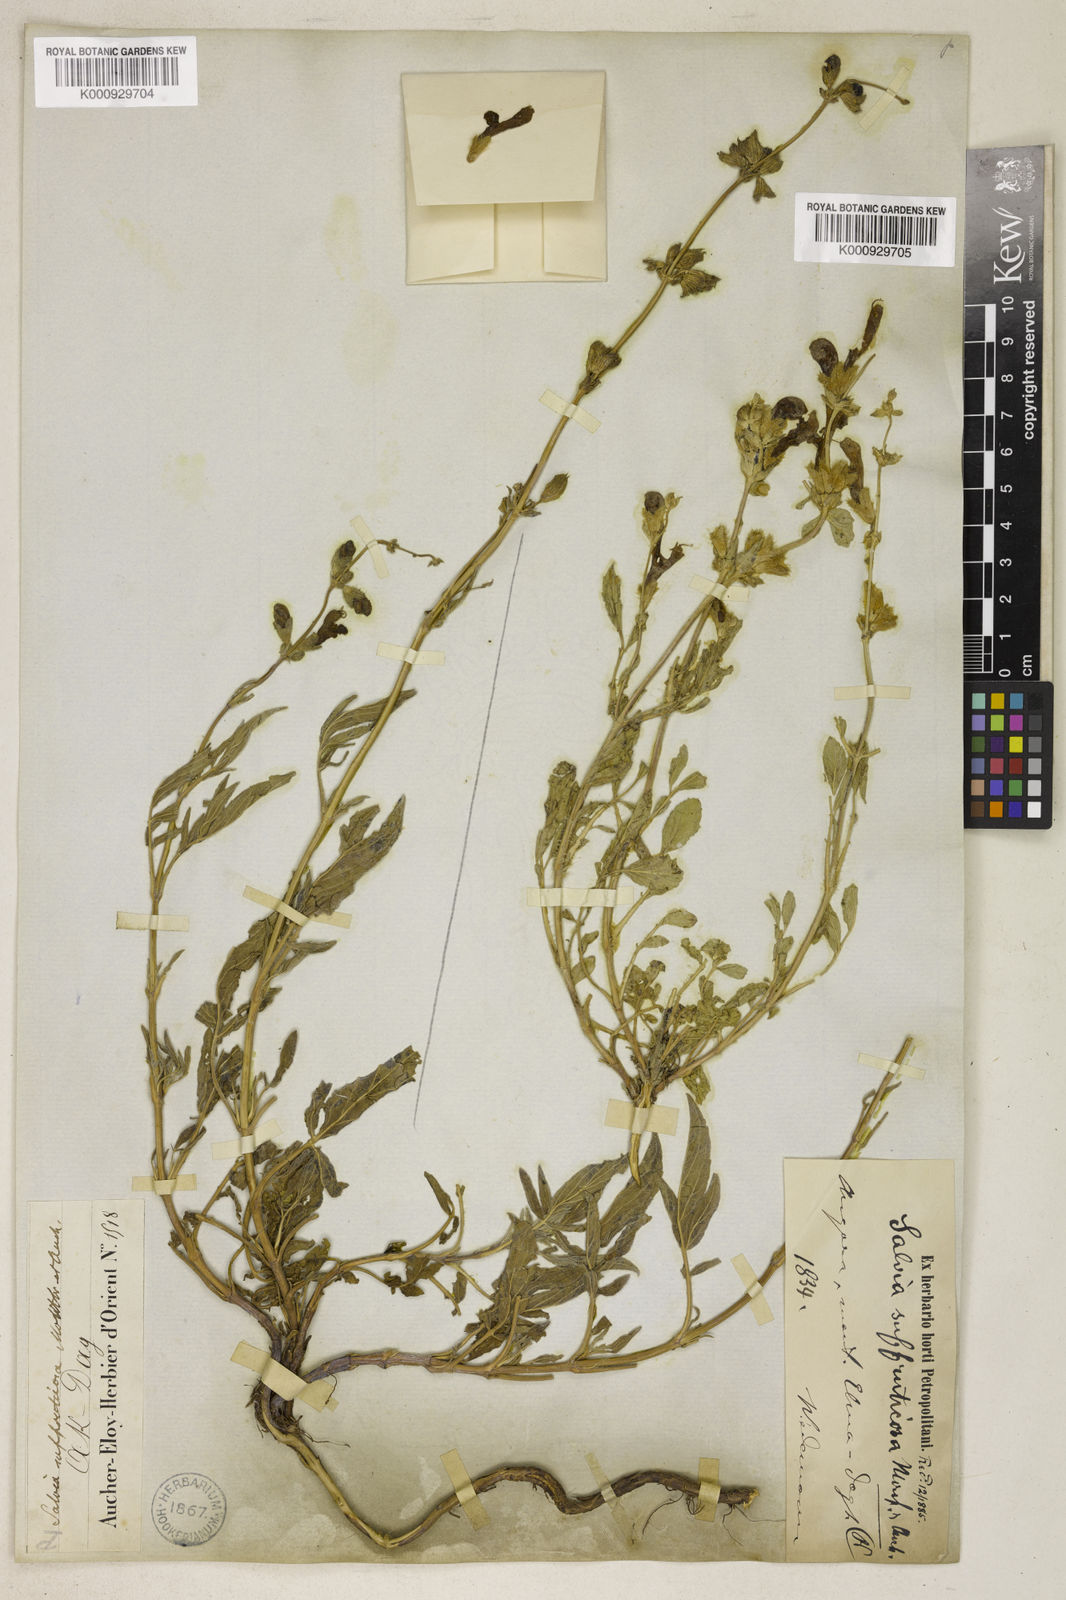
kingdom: Plantae
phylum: Tracheophyta
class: Magnoliopsida
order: Lamiales
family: Lamiaceae
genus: Salvia
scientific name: Salvia suffruticosa
